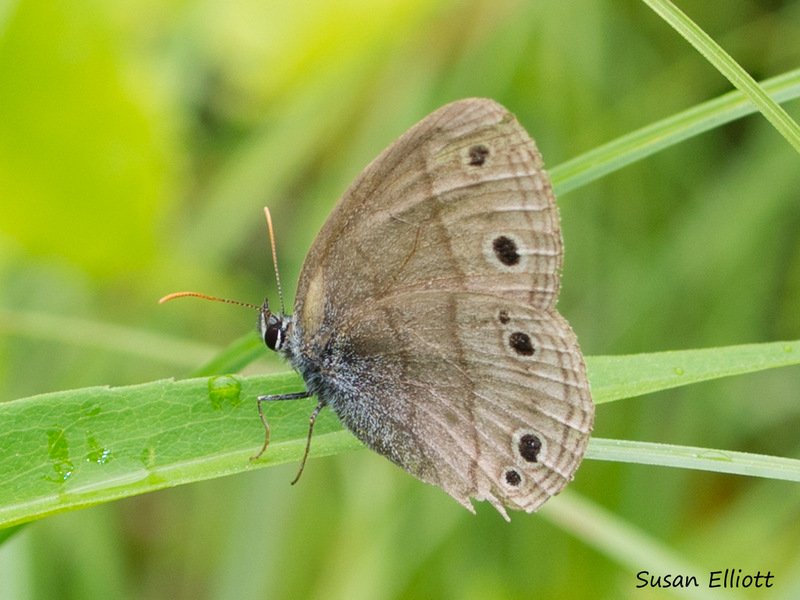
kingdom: Animalia
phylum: Arthropoda
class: Insecta
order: Lepidoptera
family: Nymphalidae
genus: Euptychia
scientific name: Euptychia cymela
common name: Little Wood Satyr
